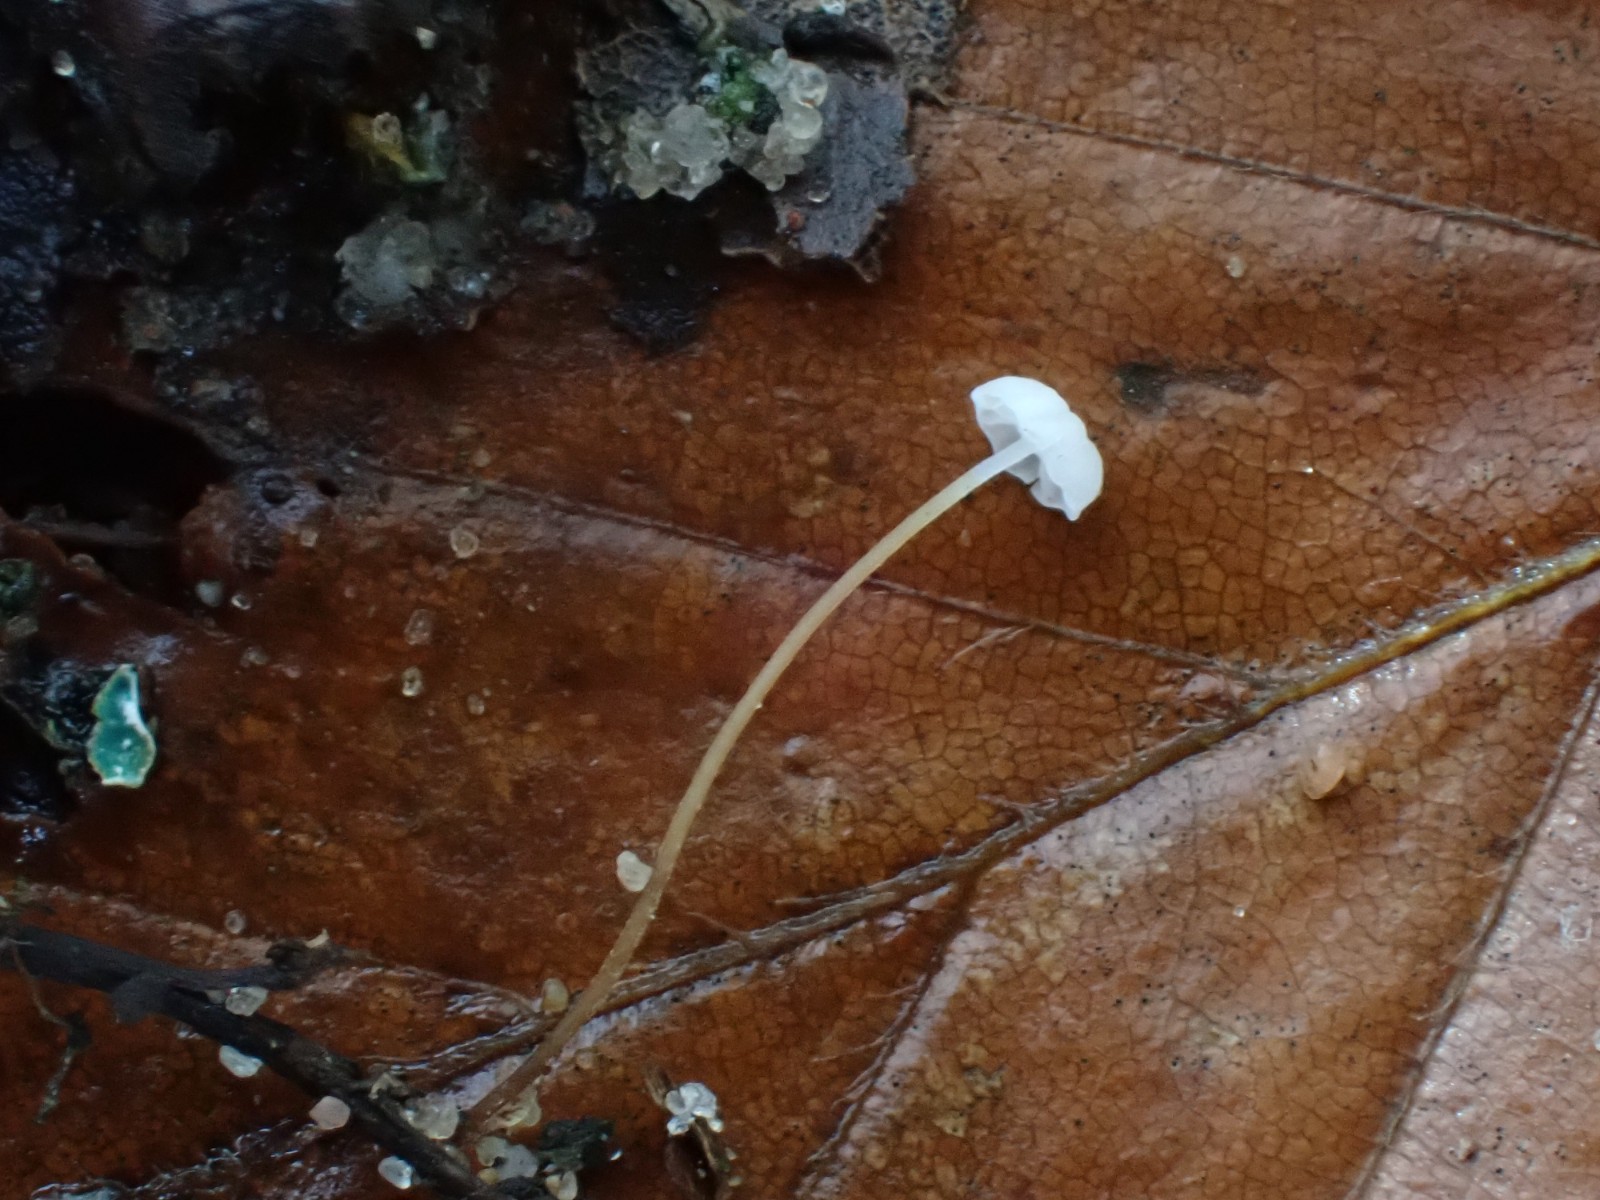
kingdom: Fungi
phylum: Basidiomycota
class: Agaricomycetes
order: Agaricales
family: Physalacriaceae
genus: Rhizomarasmius
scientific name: Rhizomarasmius setosus
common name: bøgeblads-bruskhat
